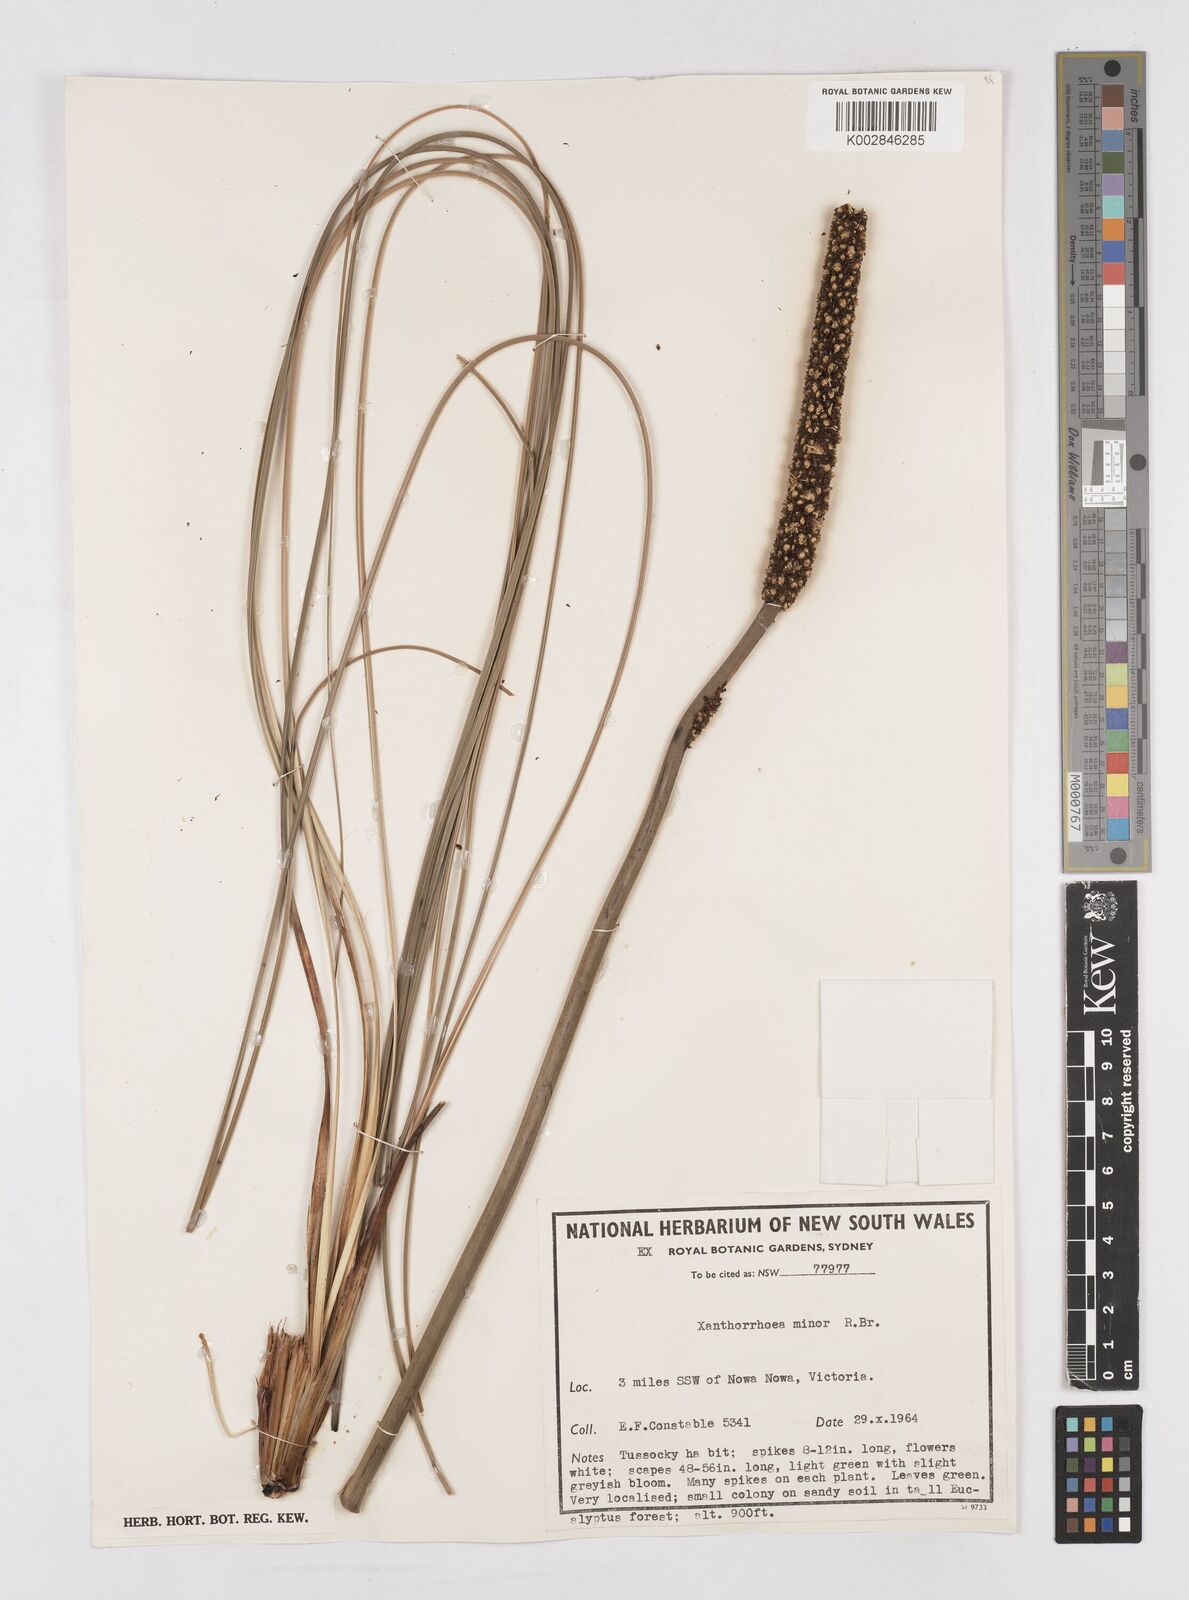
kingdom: Plantae
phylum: Tracheophyta
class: Liliopsida
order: Asparagales
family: Asphodelaceae
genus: Xanthorrhoea
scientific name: Xanthorrhoea minor
